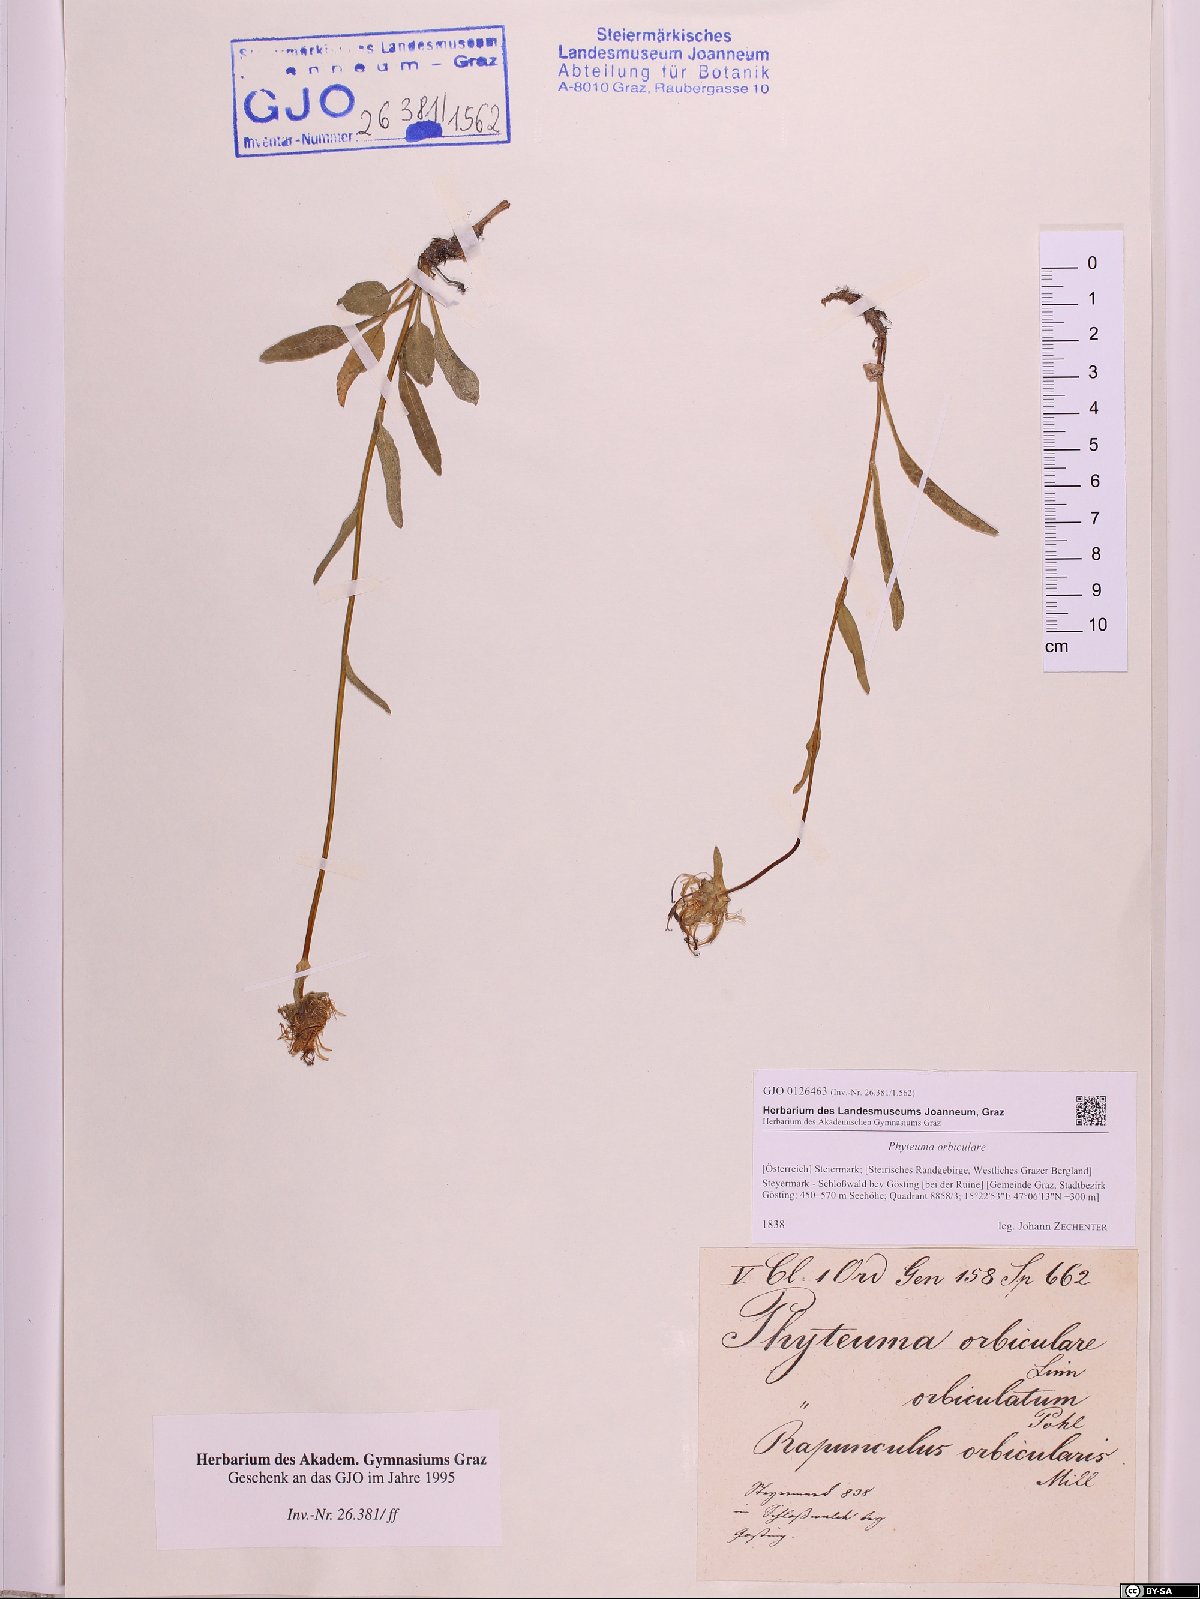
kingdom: Plantae
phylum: Tracheophyta
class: Magnoliopsida
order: Asterales
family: Campanulaceae
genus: Phyteuma
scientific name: Phyteuma orbiculare
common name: Round-headed rampion
